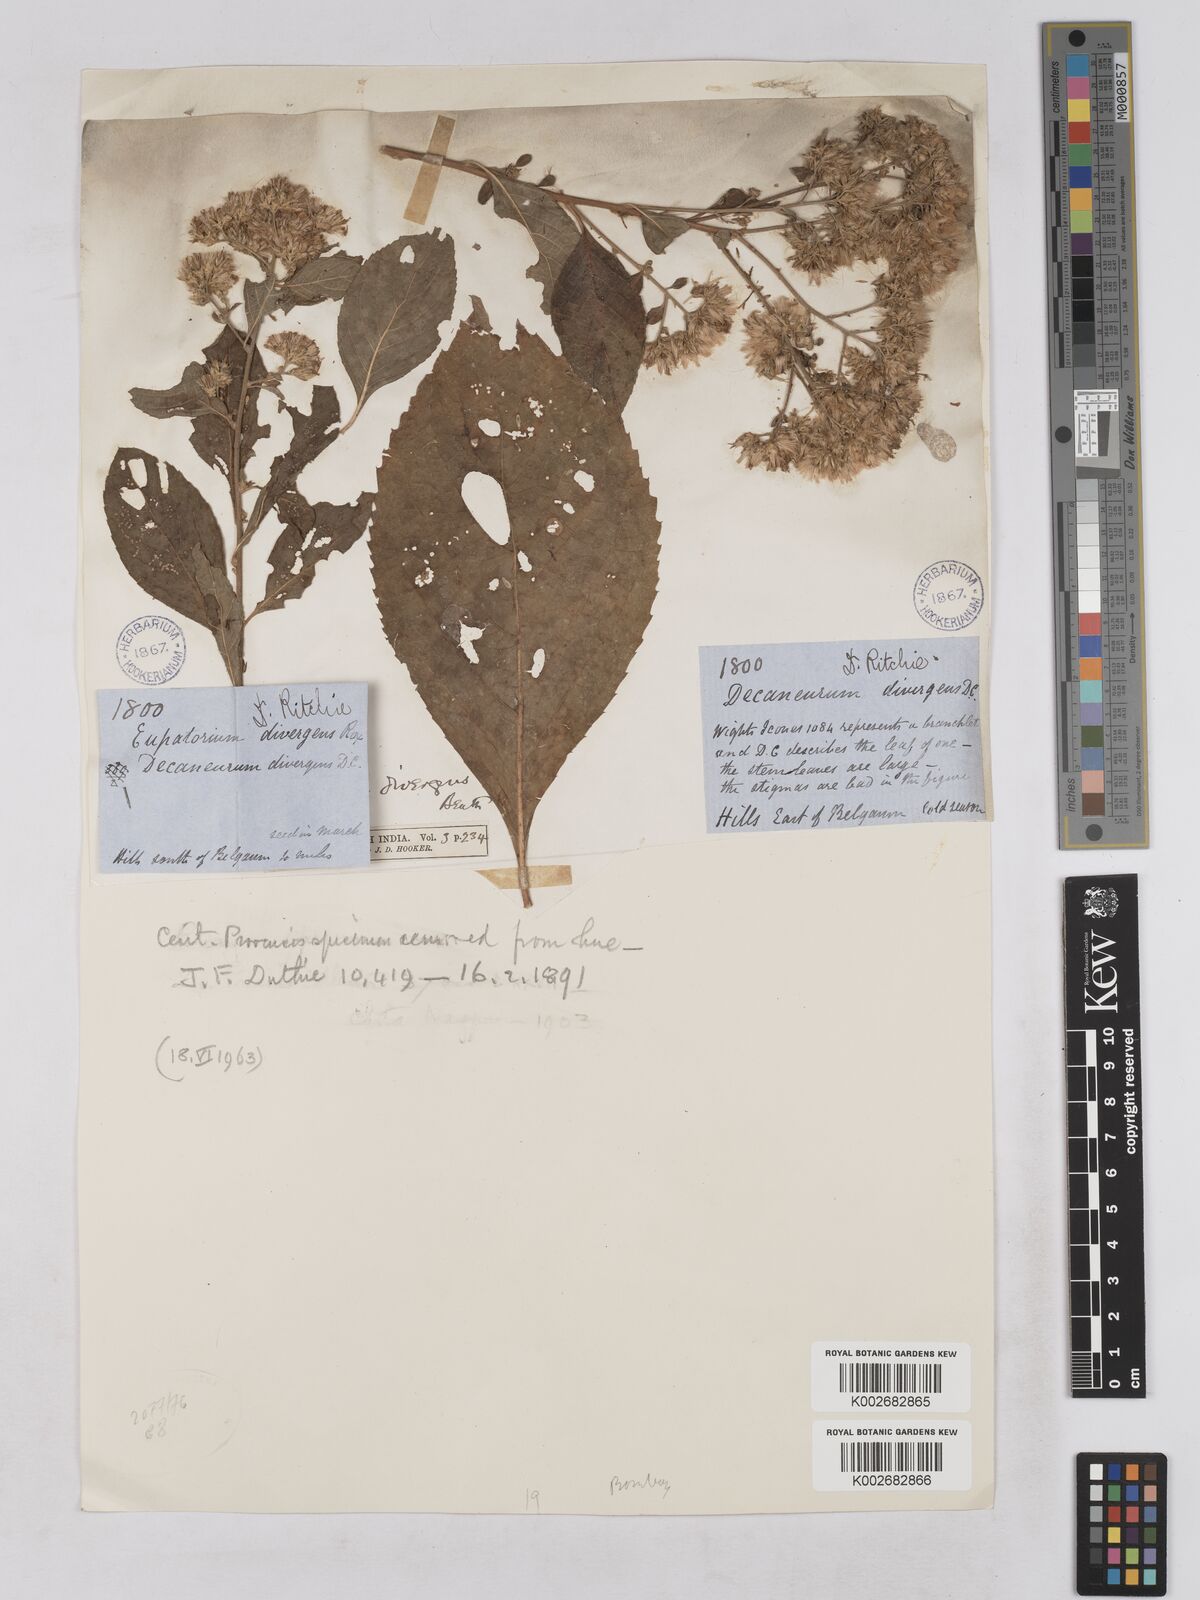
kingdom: Plantae
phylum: Tracheophyta
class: Magnoliopsida
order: Asterales
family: Asteraceae
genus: Acilepis
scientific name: Acilepis divergens
